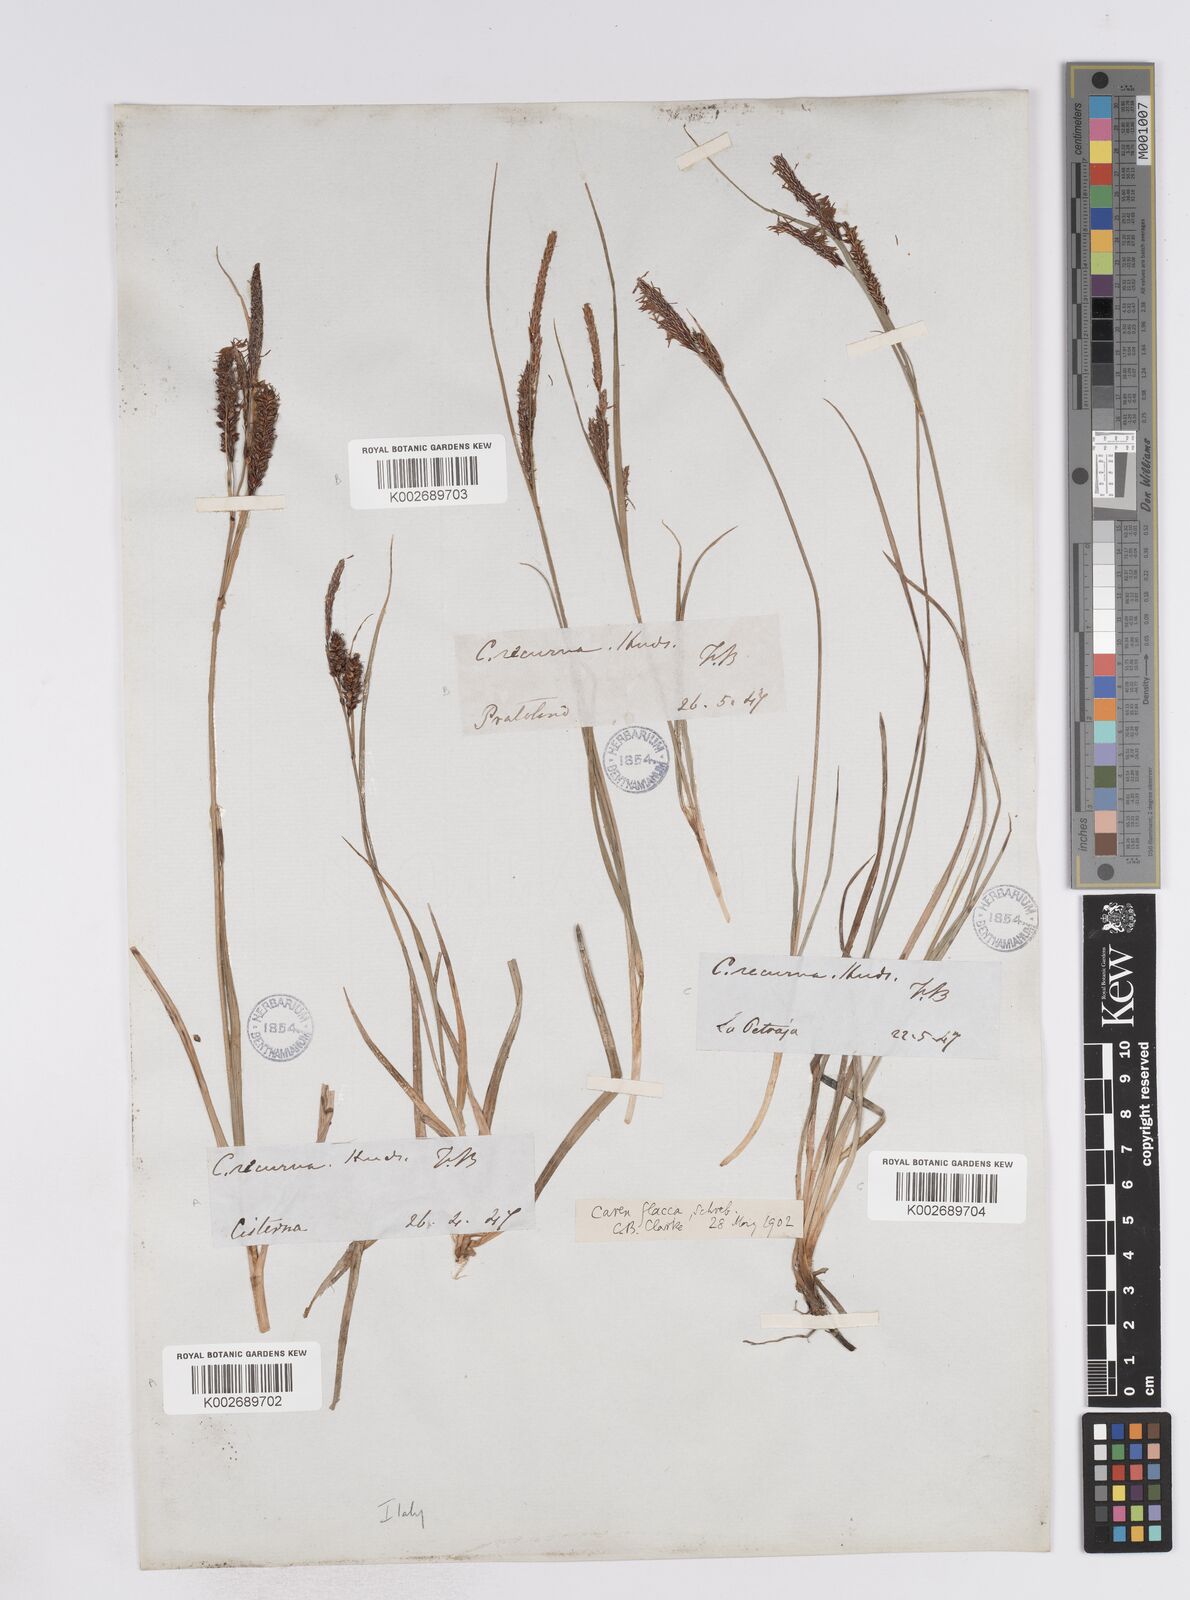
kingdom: Plantae
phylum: Tracheophyta
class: Liliopsida
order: Poales
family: Cyperaceae
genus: Carex
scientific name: Carex flacca
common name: Glaucous sedge
